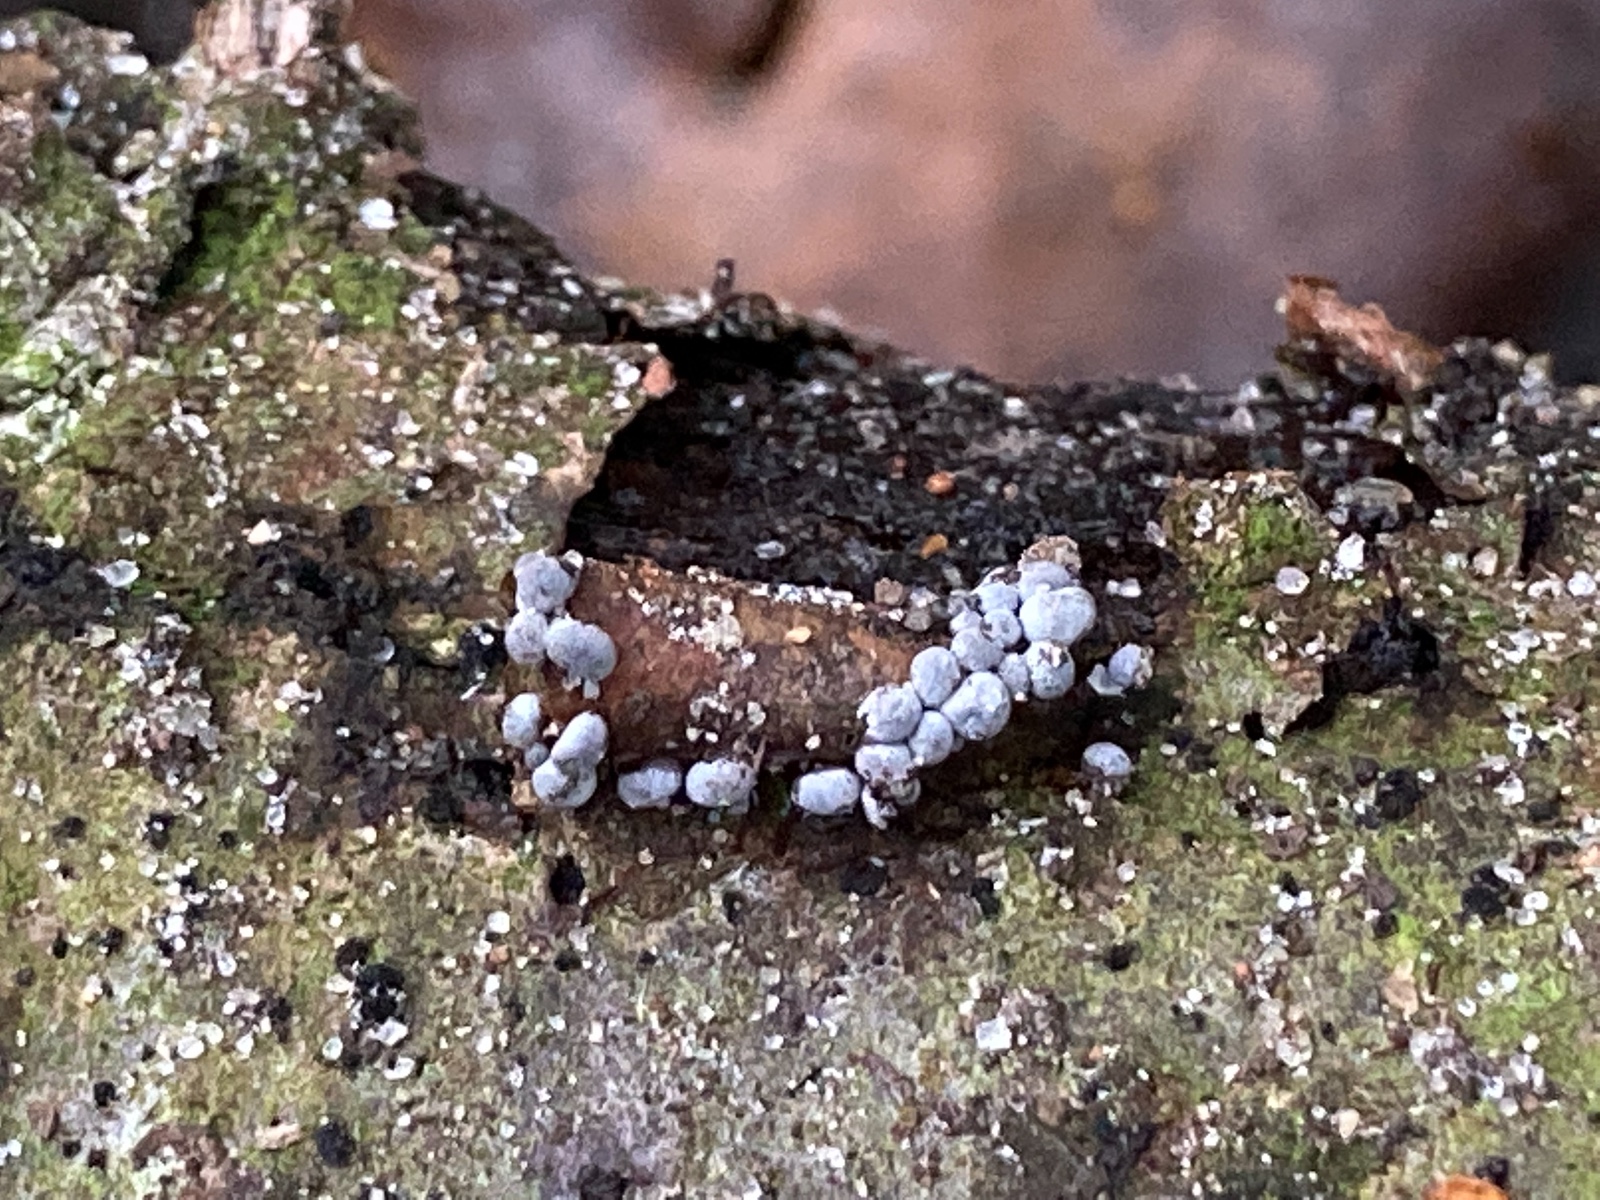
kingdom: Protozoa
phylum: Mycetozoa
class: Myxomycetes
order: Physarales
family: Physaraceae
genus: Badhamia
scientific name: Badhamia panicea
